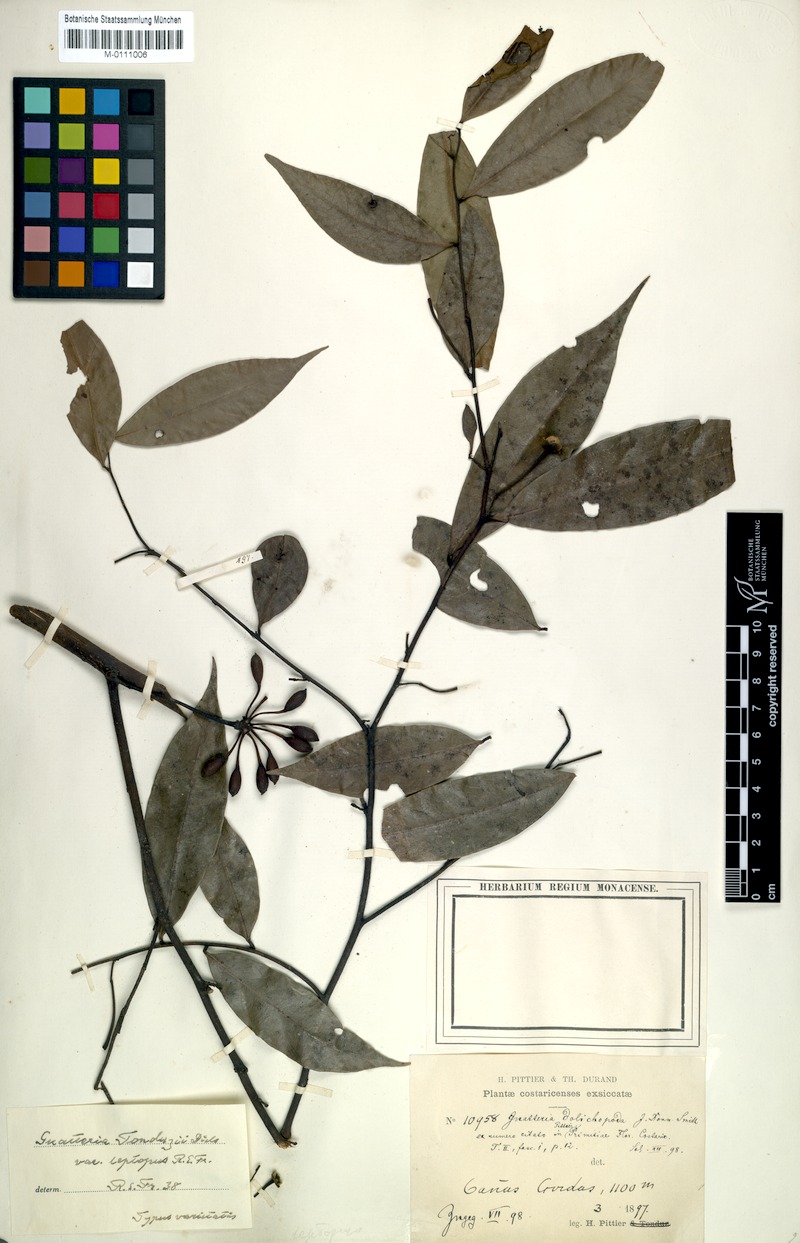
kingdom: Plantae
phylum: Tracheophyta
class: Magnoliopsida
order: Magnoliales
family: Annonaceae
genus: Guatteria
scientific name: Guatteria tonduzii
